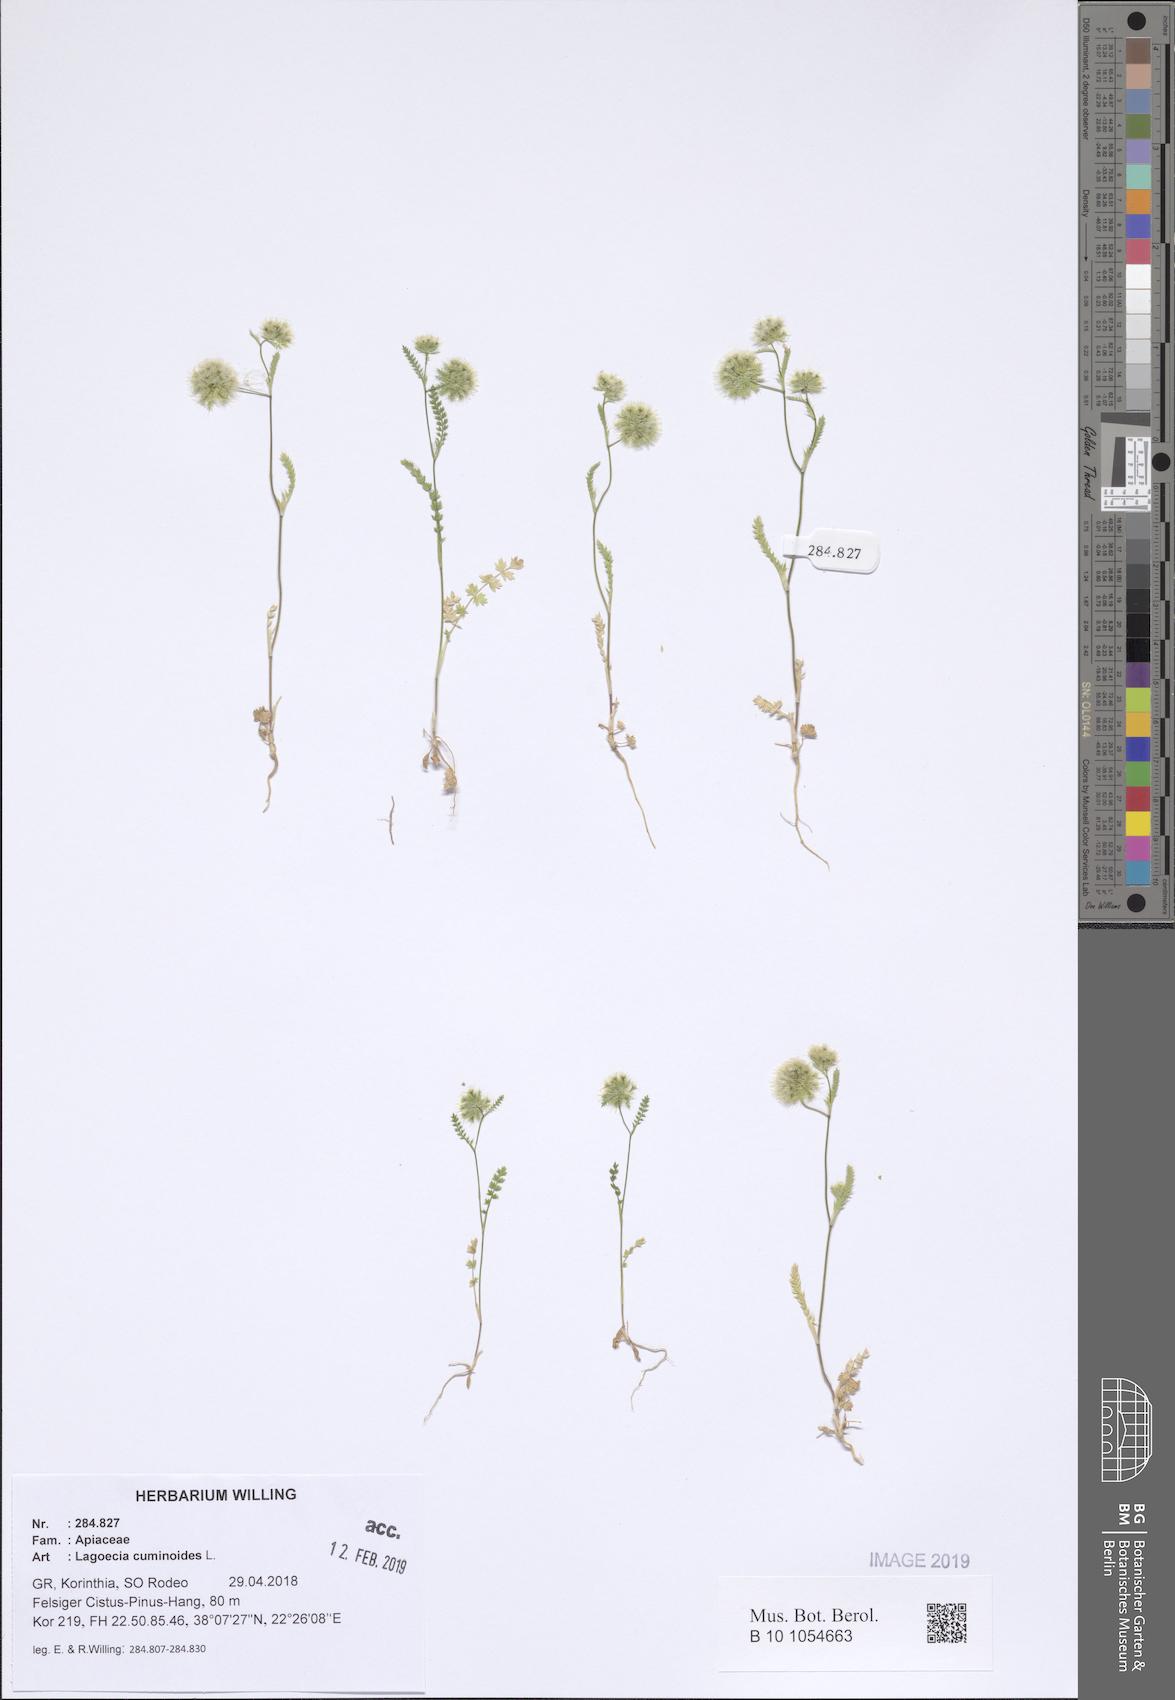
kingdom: Plantae
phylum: Tracheophyta
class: Magnoliopsida
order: Apiales
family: Apiaceae
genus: Lagoecia
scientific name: Lagoecia cuminoides
